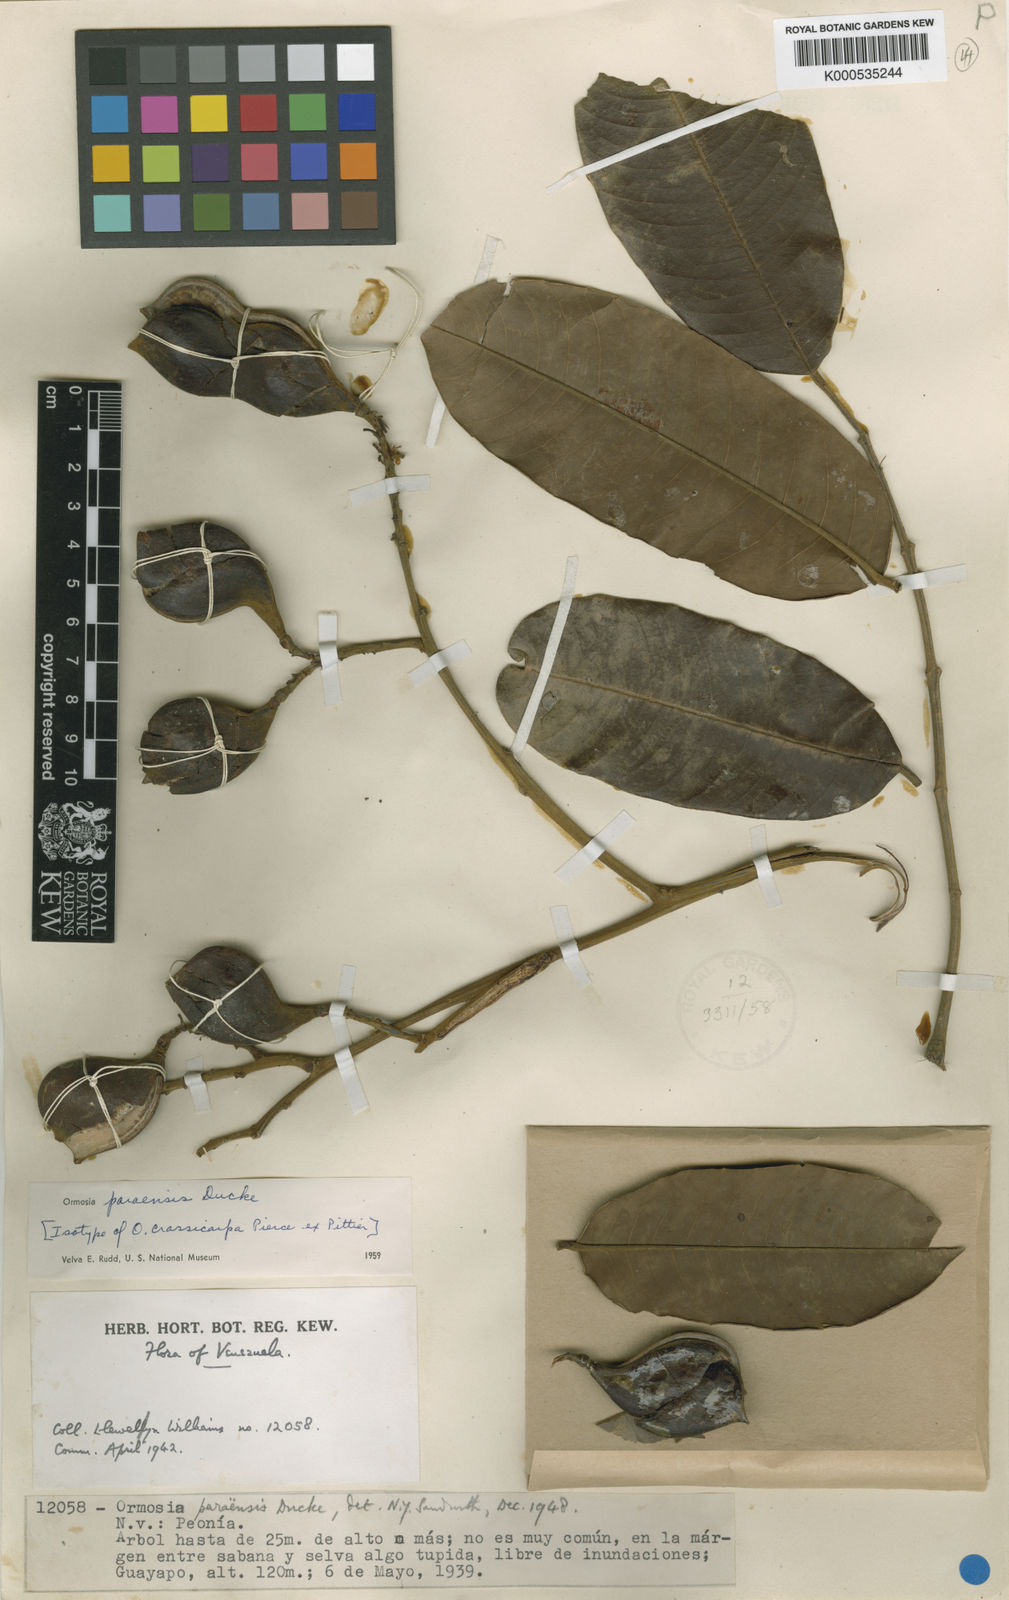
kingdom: Plantae
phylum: Tracheophyta
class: Magnoliopsida
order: Fabales
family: Fabaceae
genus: Ormosia
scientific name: Ormosia paraensis
